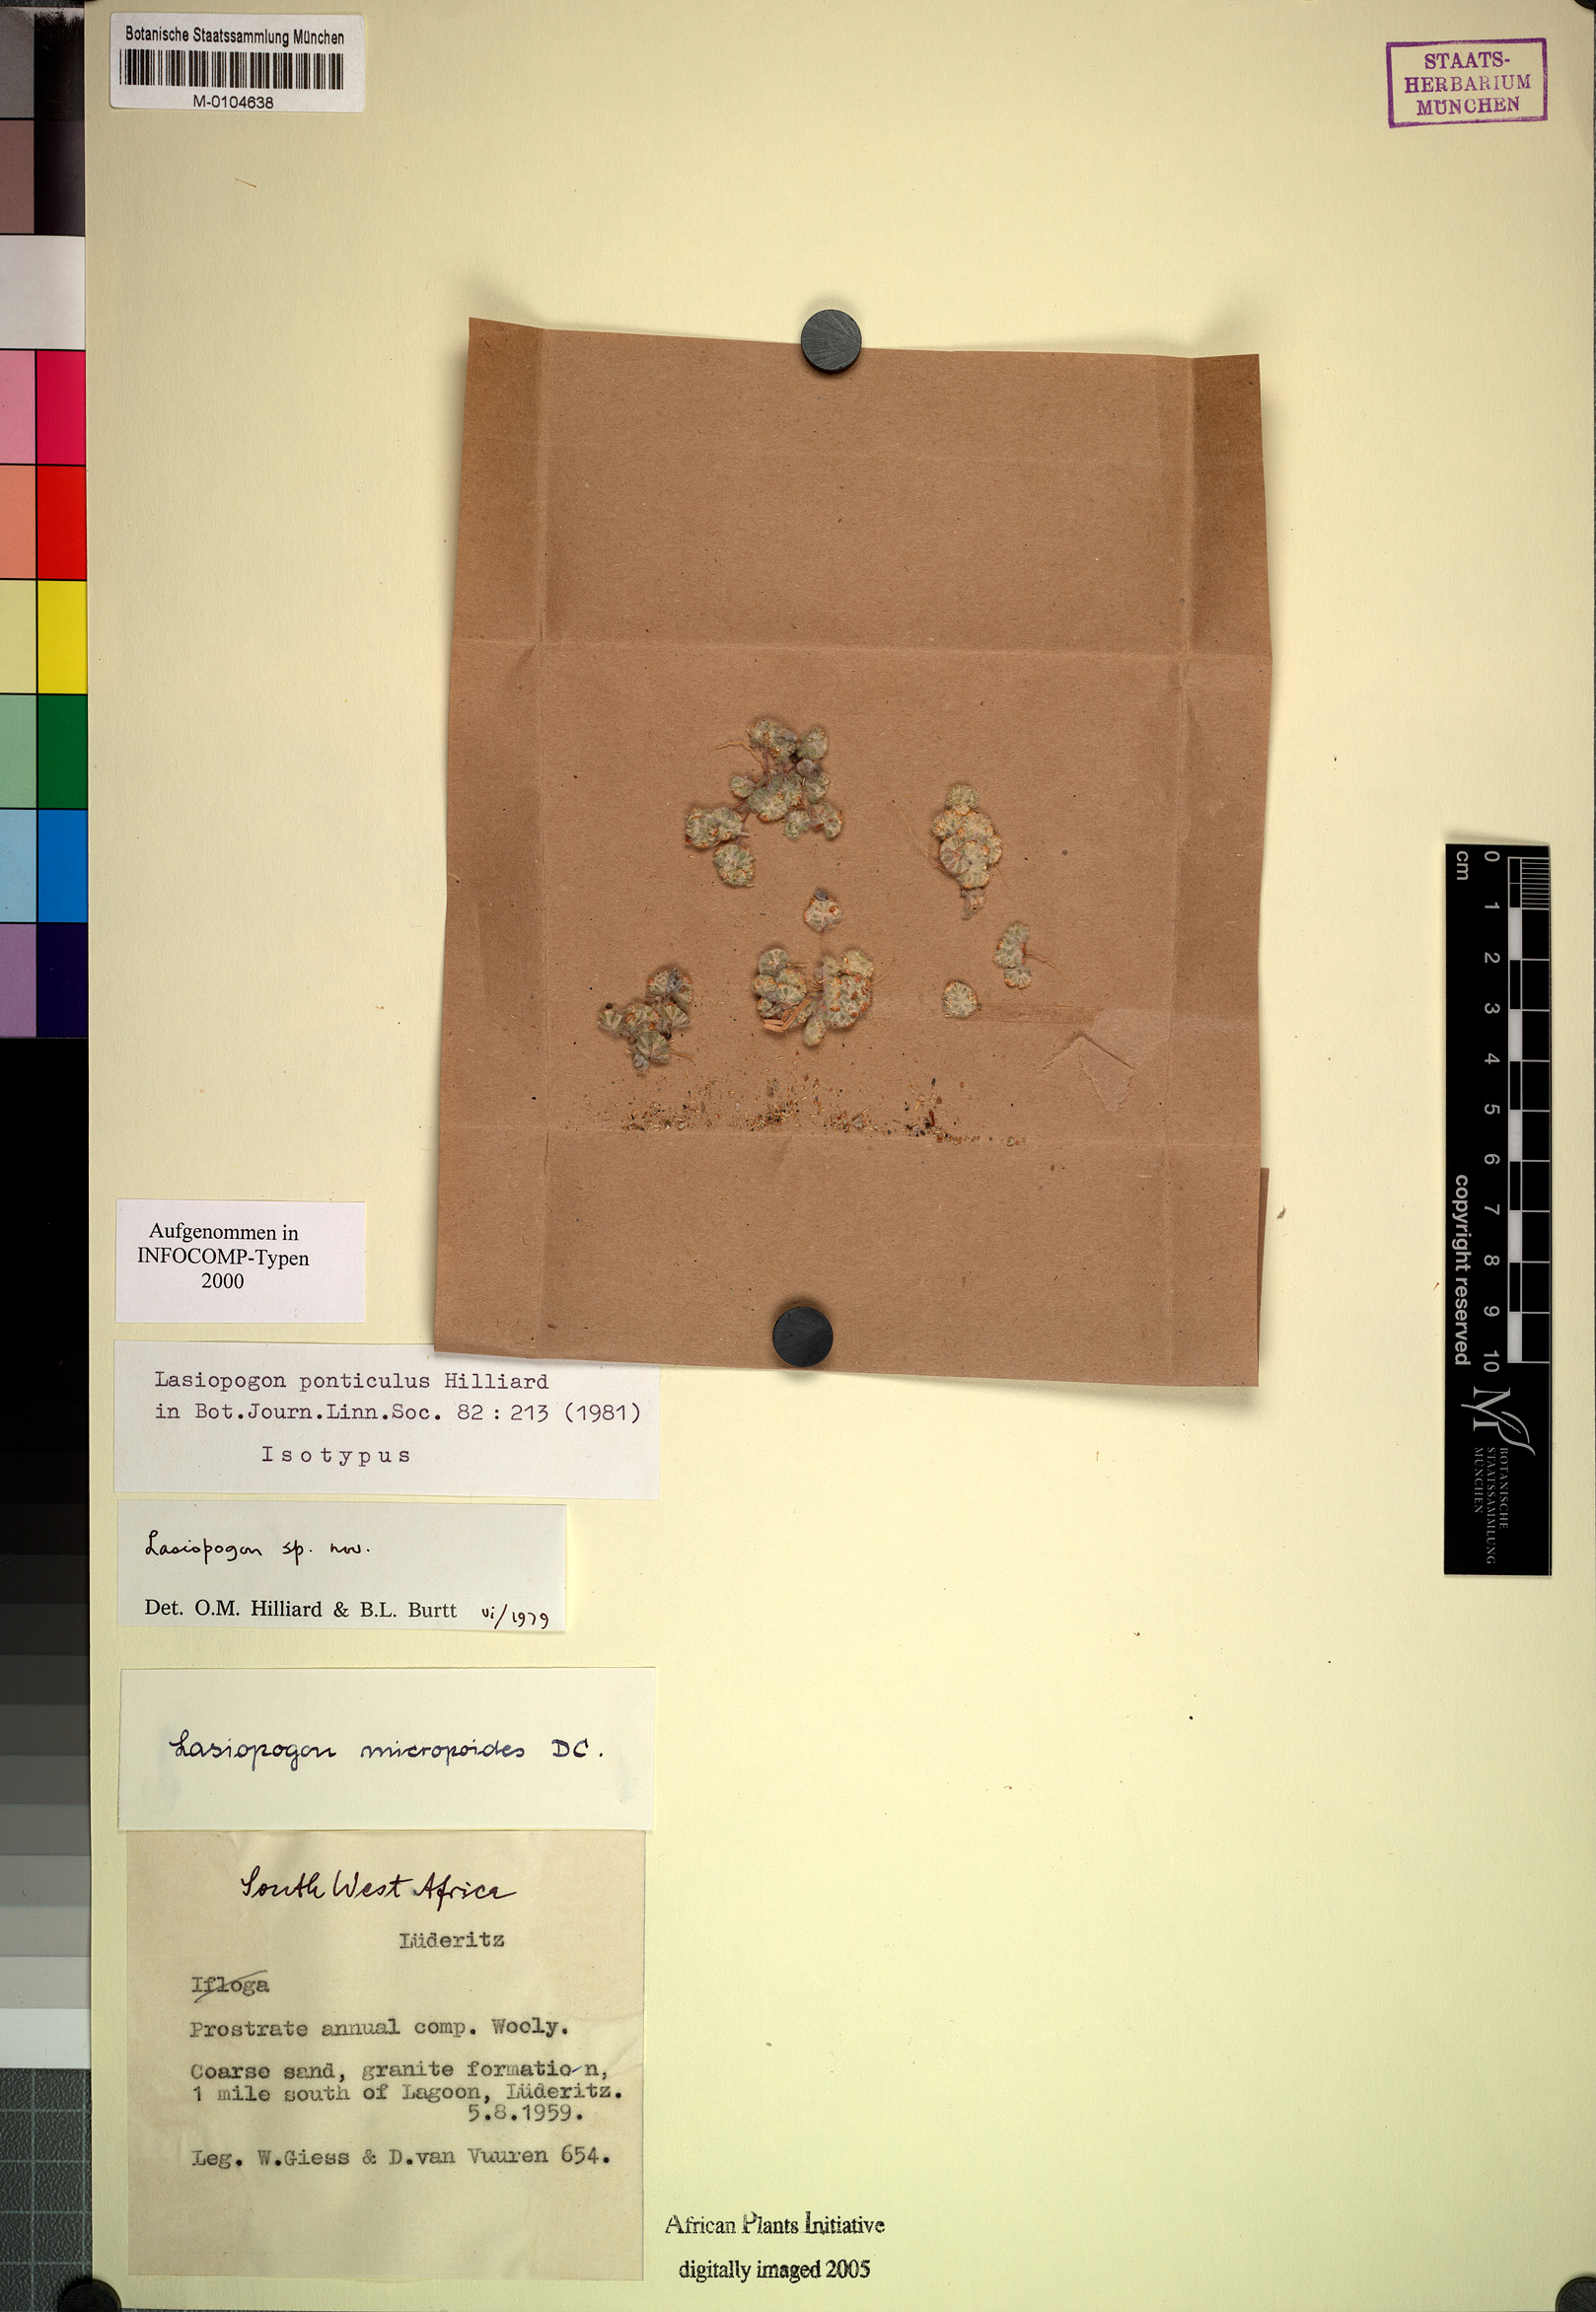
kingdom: Plantae
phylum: Tracheophyta
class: Magnoliopsida
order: Asterales
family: Asteraceae
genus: Lasiopogon
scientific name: Lasiopogon ponticulus
